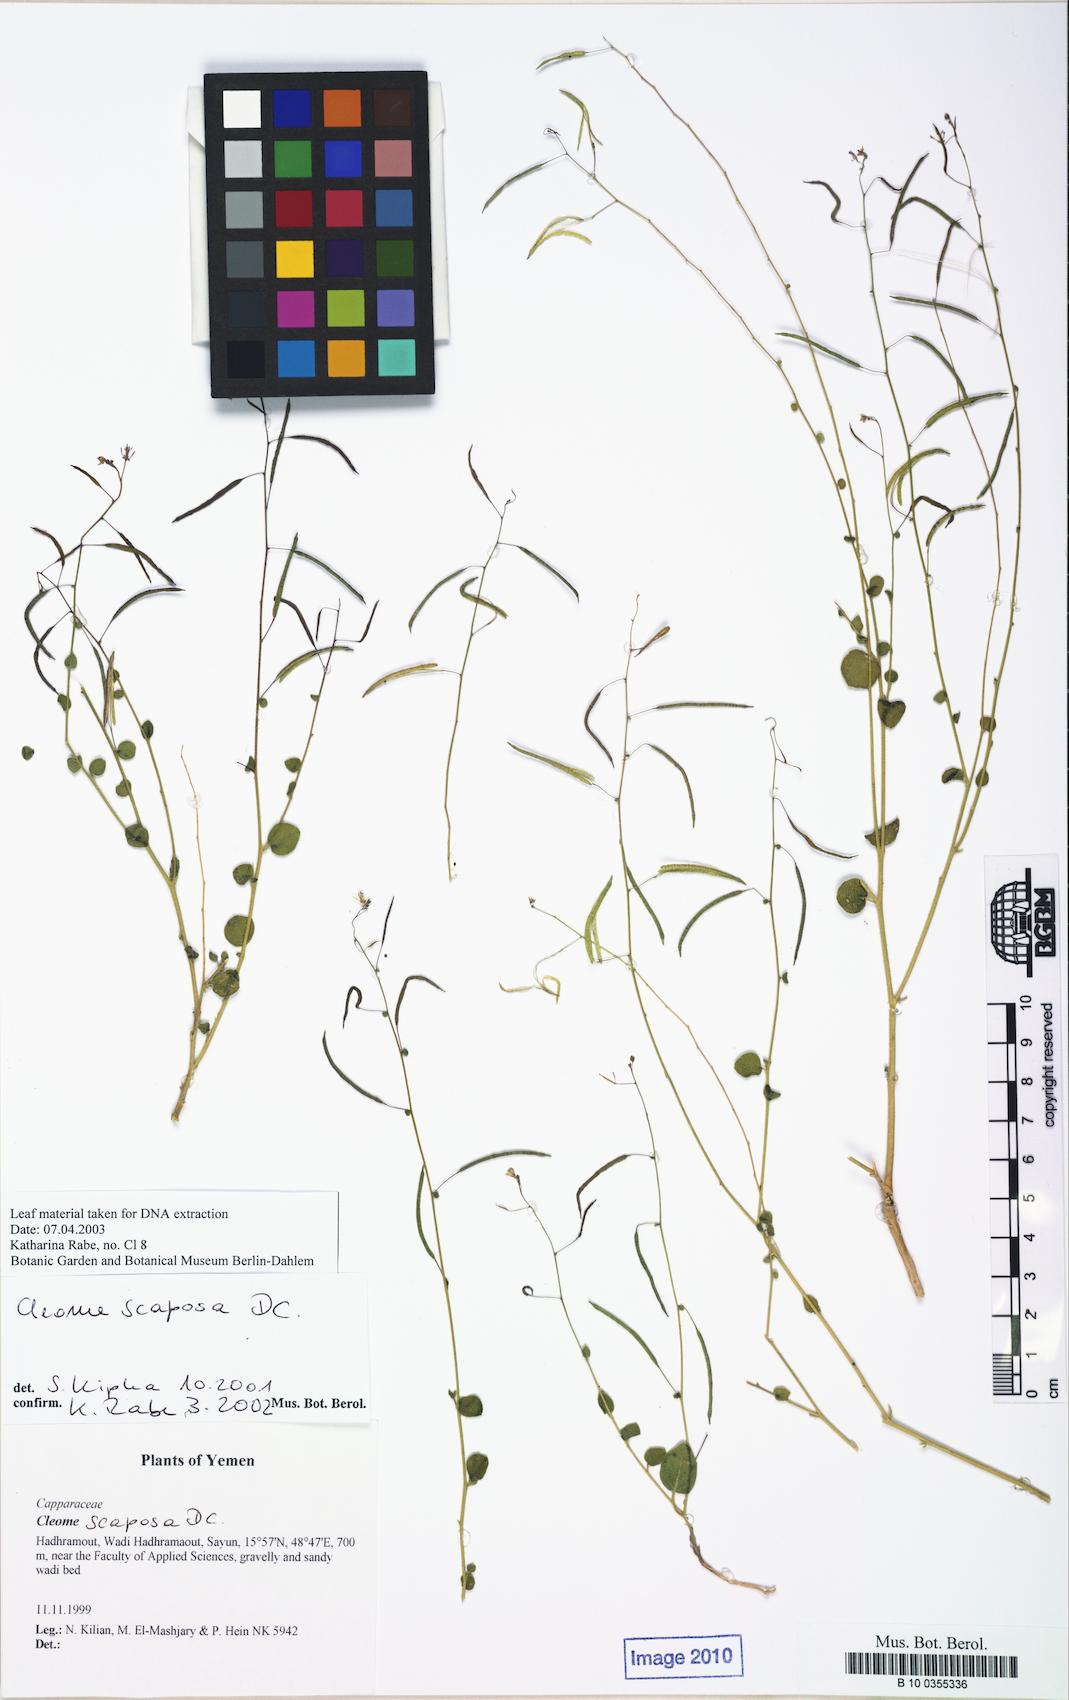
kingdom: Plantae
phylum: Tracheophyta
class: Magnoliopsida
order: Brassicales
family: Cleomaceae
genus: Gilgella
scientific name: Gilgella scaposa
